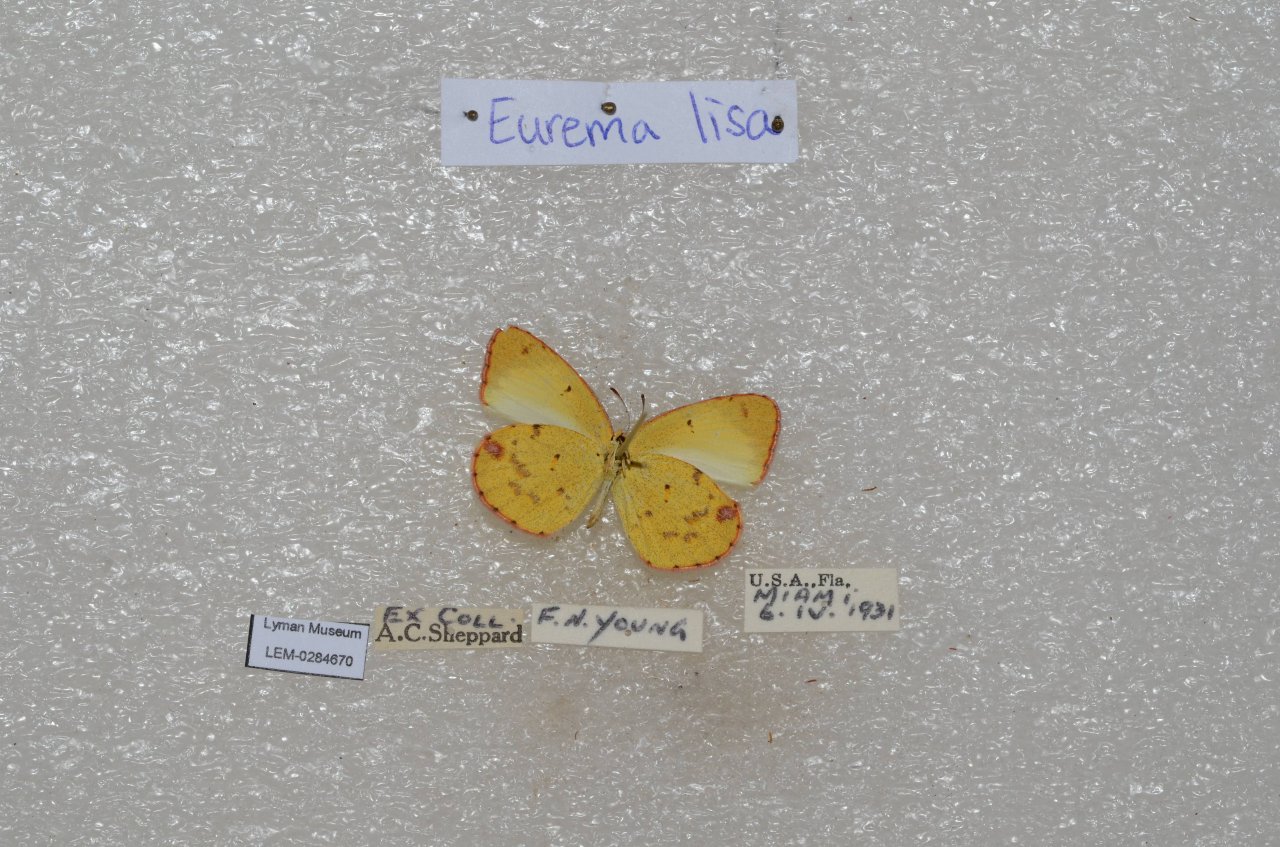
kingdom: Animalia
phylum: Arthropoda
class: Insecta
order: Lepidoptera
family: Pieridae
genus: Pyrisitia
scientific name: Pyrisitia lisa
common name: Little Yellow
